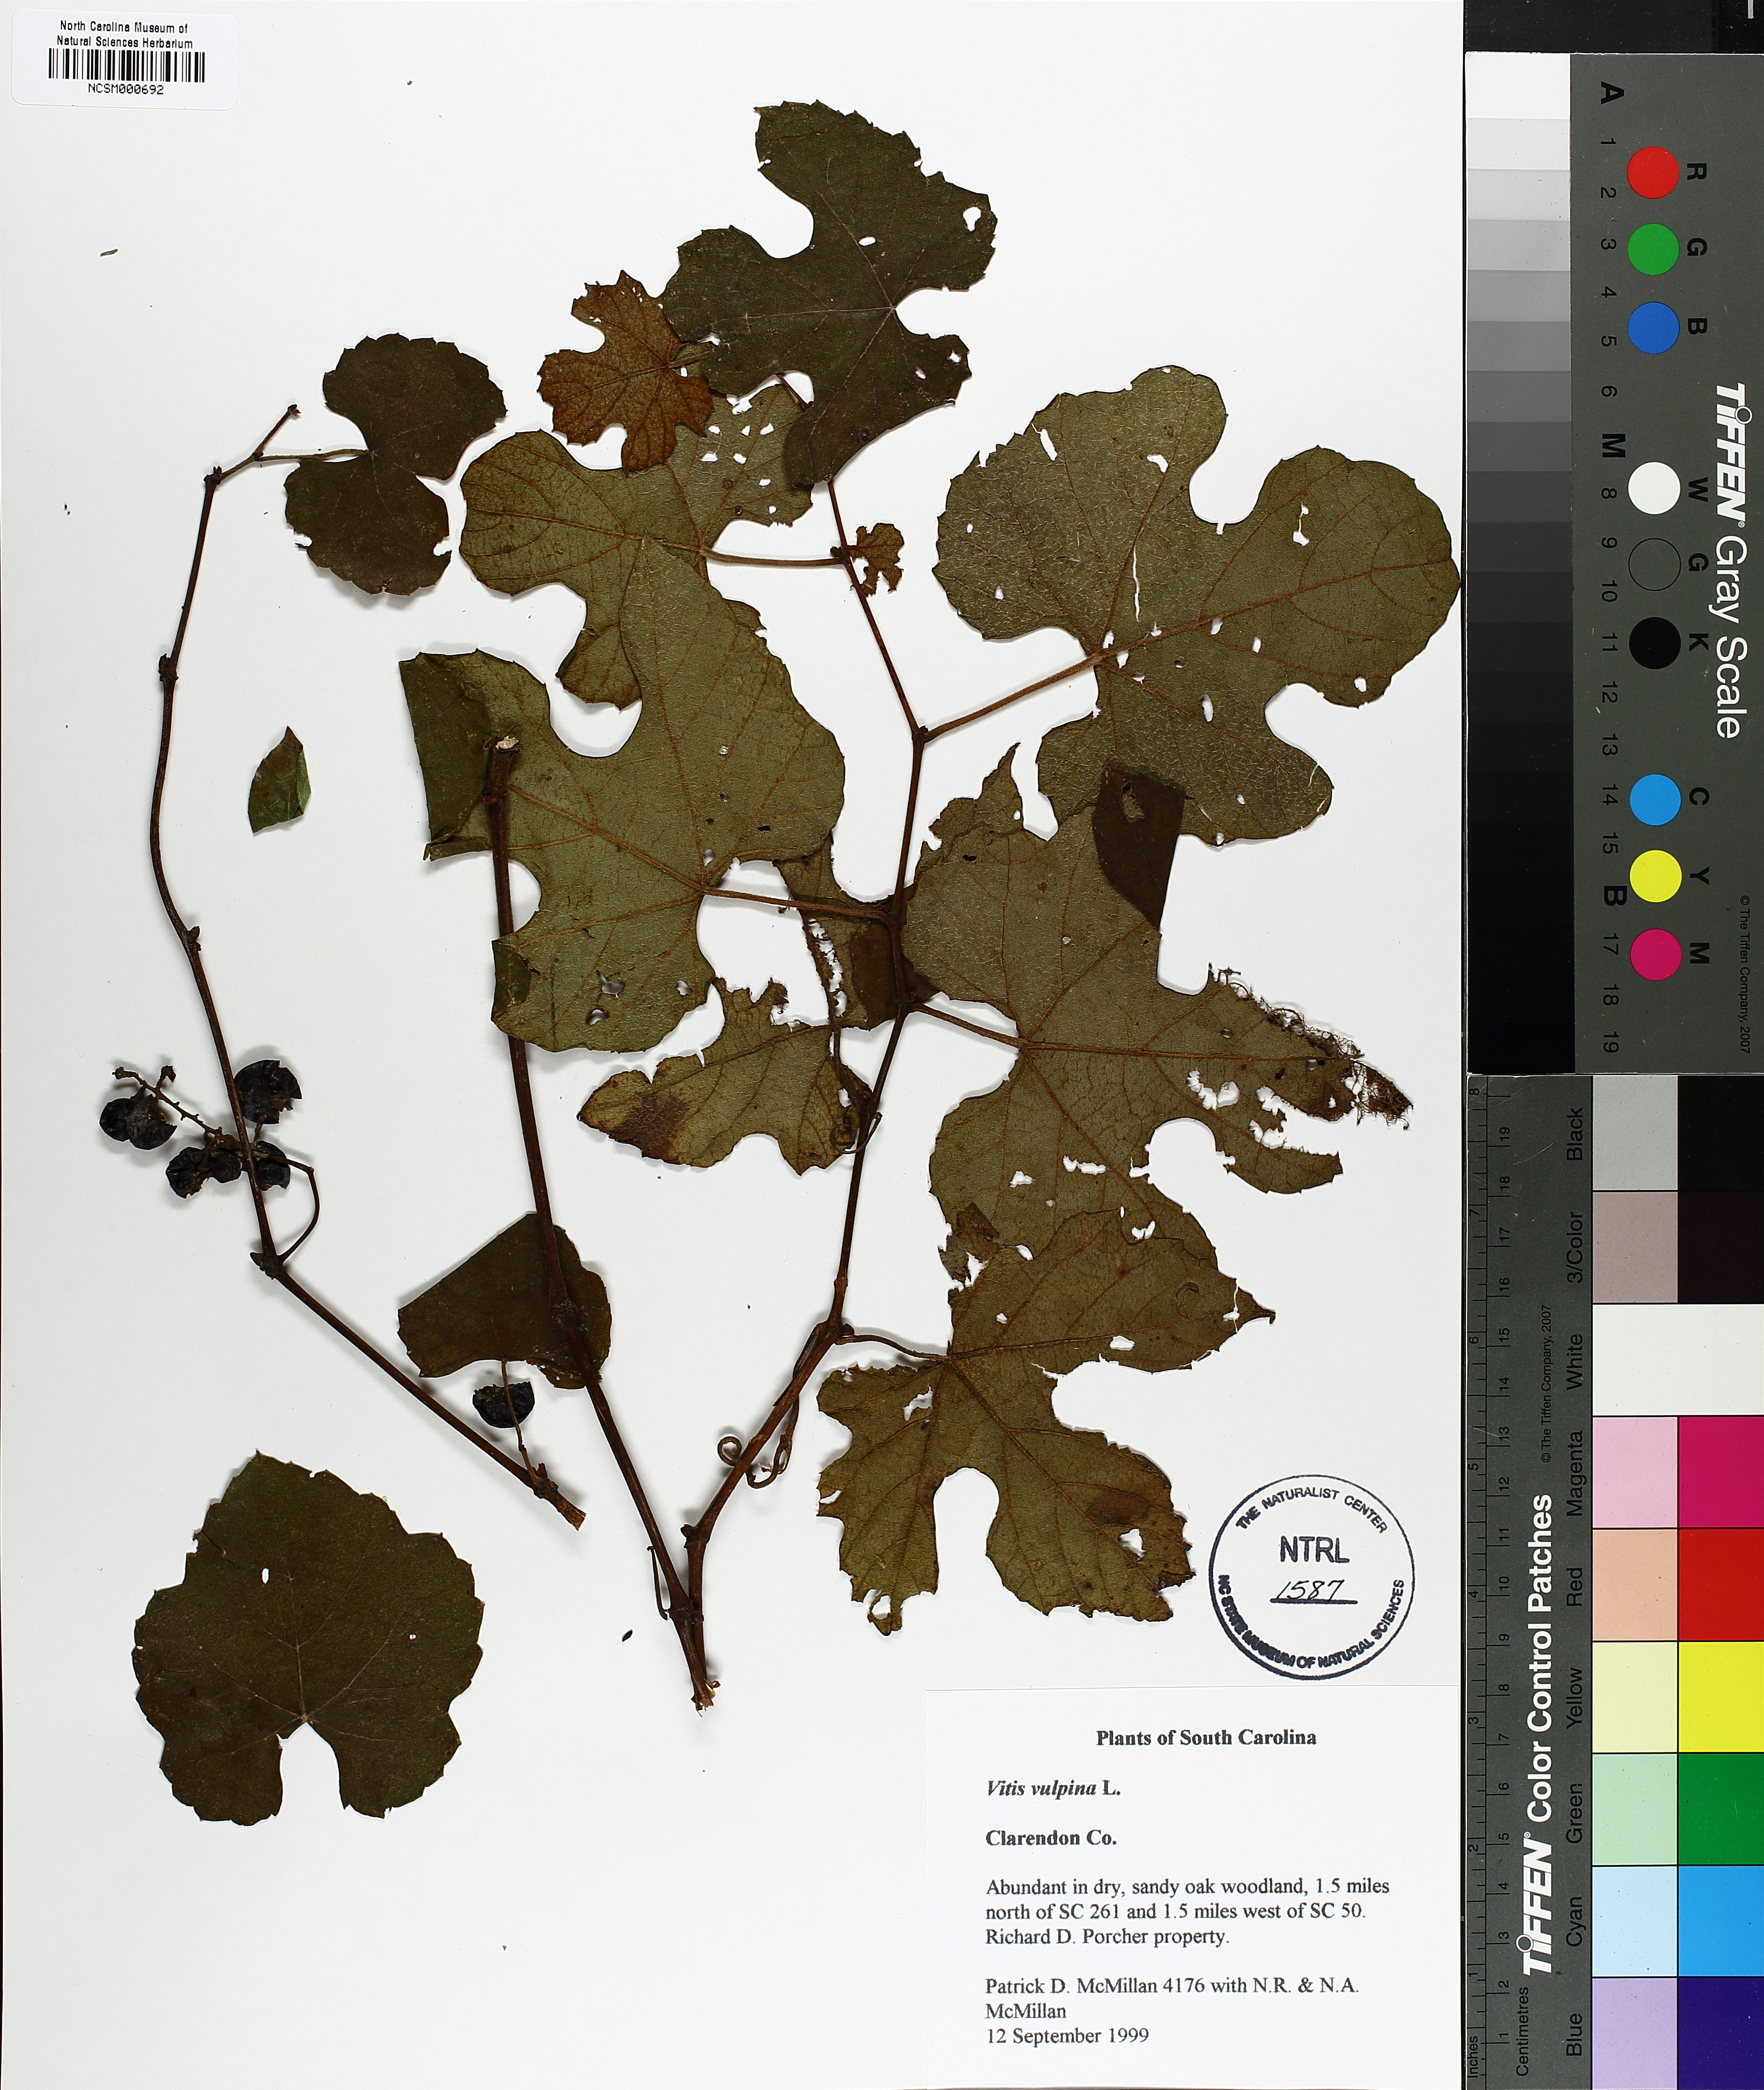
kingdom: Plantae
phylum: Tracheophyta
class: Magnoliopsida
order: Vitales
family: Vitaceae
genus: Vitis
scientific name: Vitis vulpina
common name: Frost grape
